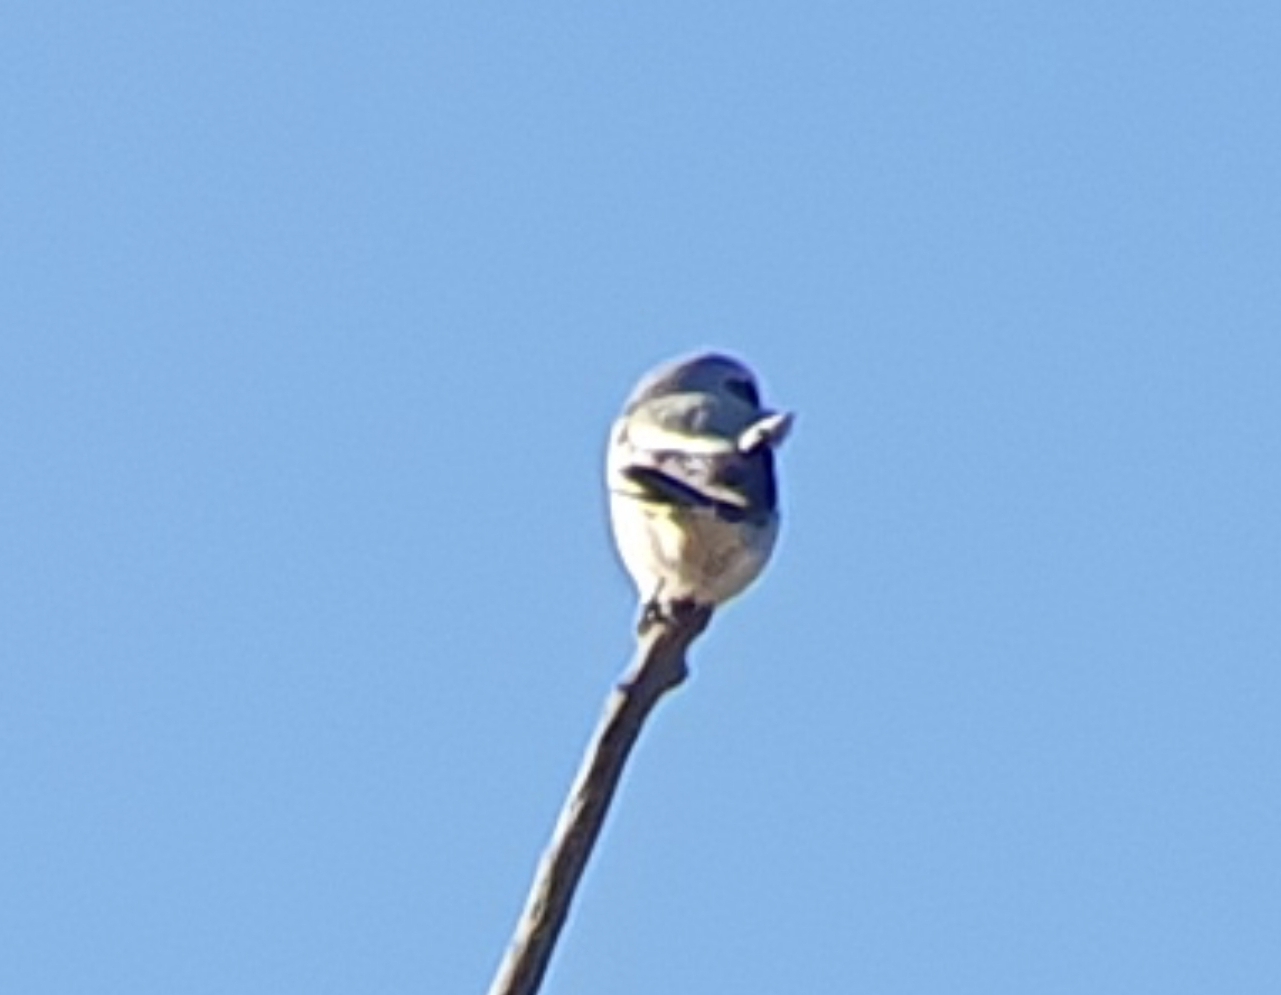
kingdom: Animalia
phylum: Chordata
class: Aves
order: Passeriformes
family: Laniidae
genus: Lanius
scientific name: Lanius excubitor
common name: Stor tornskade
